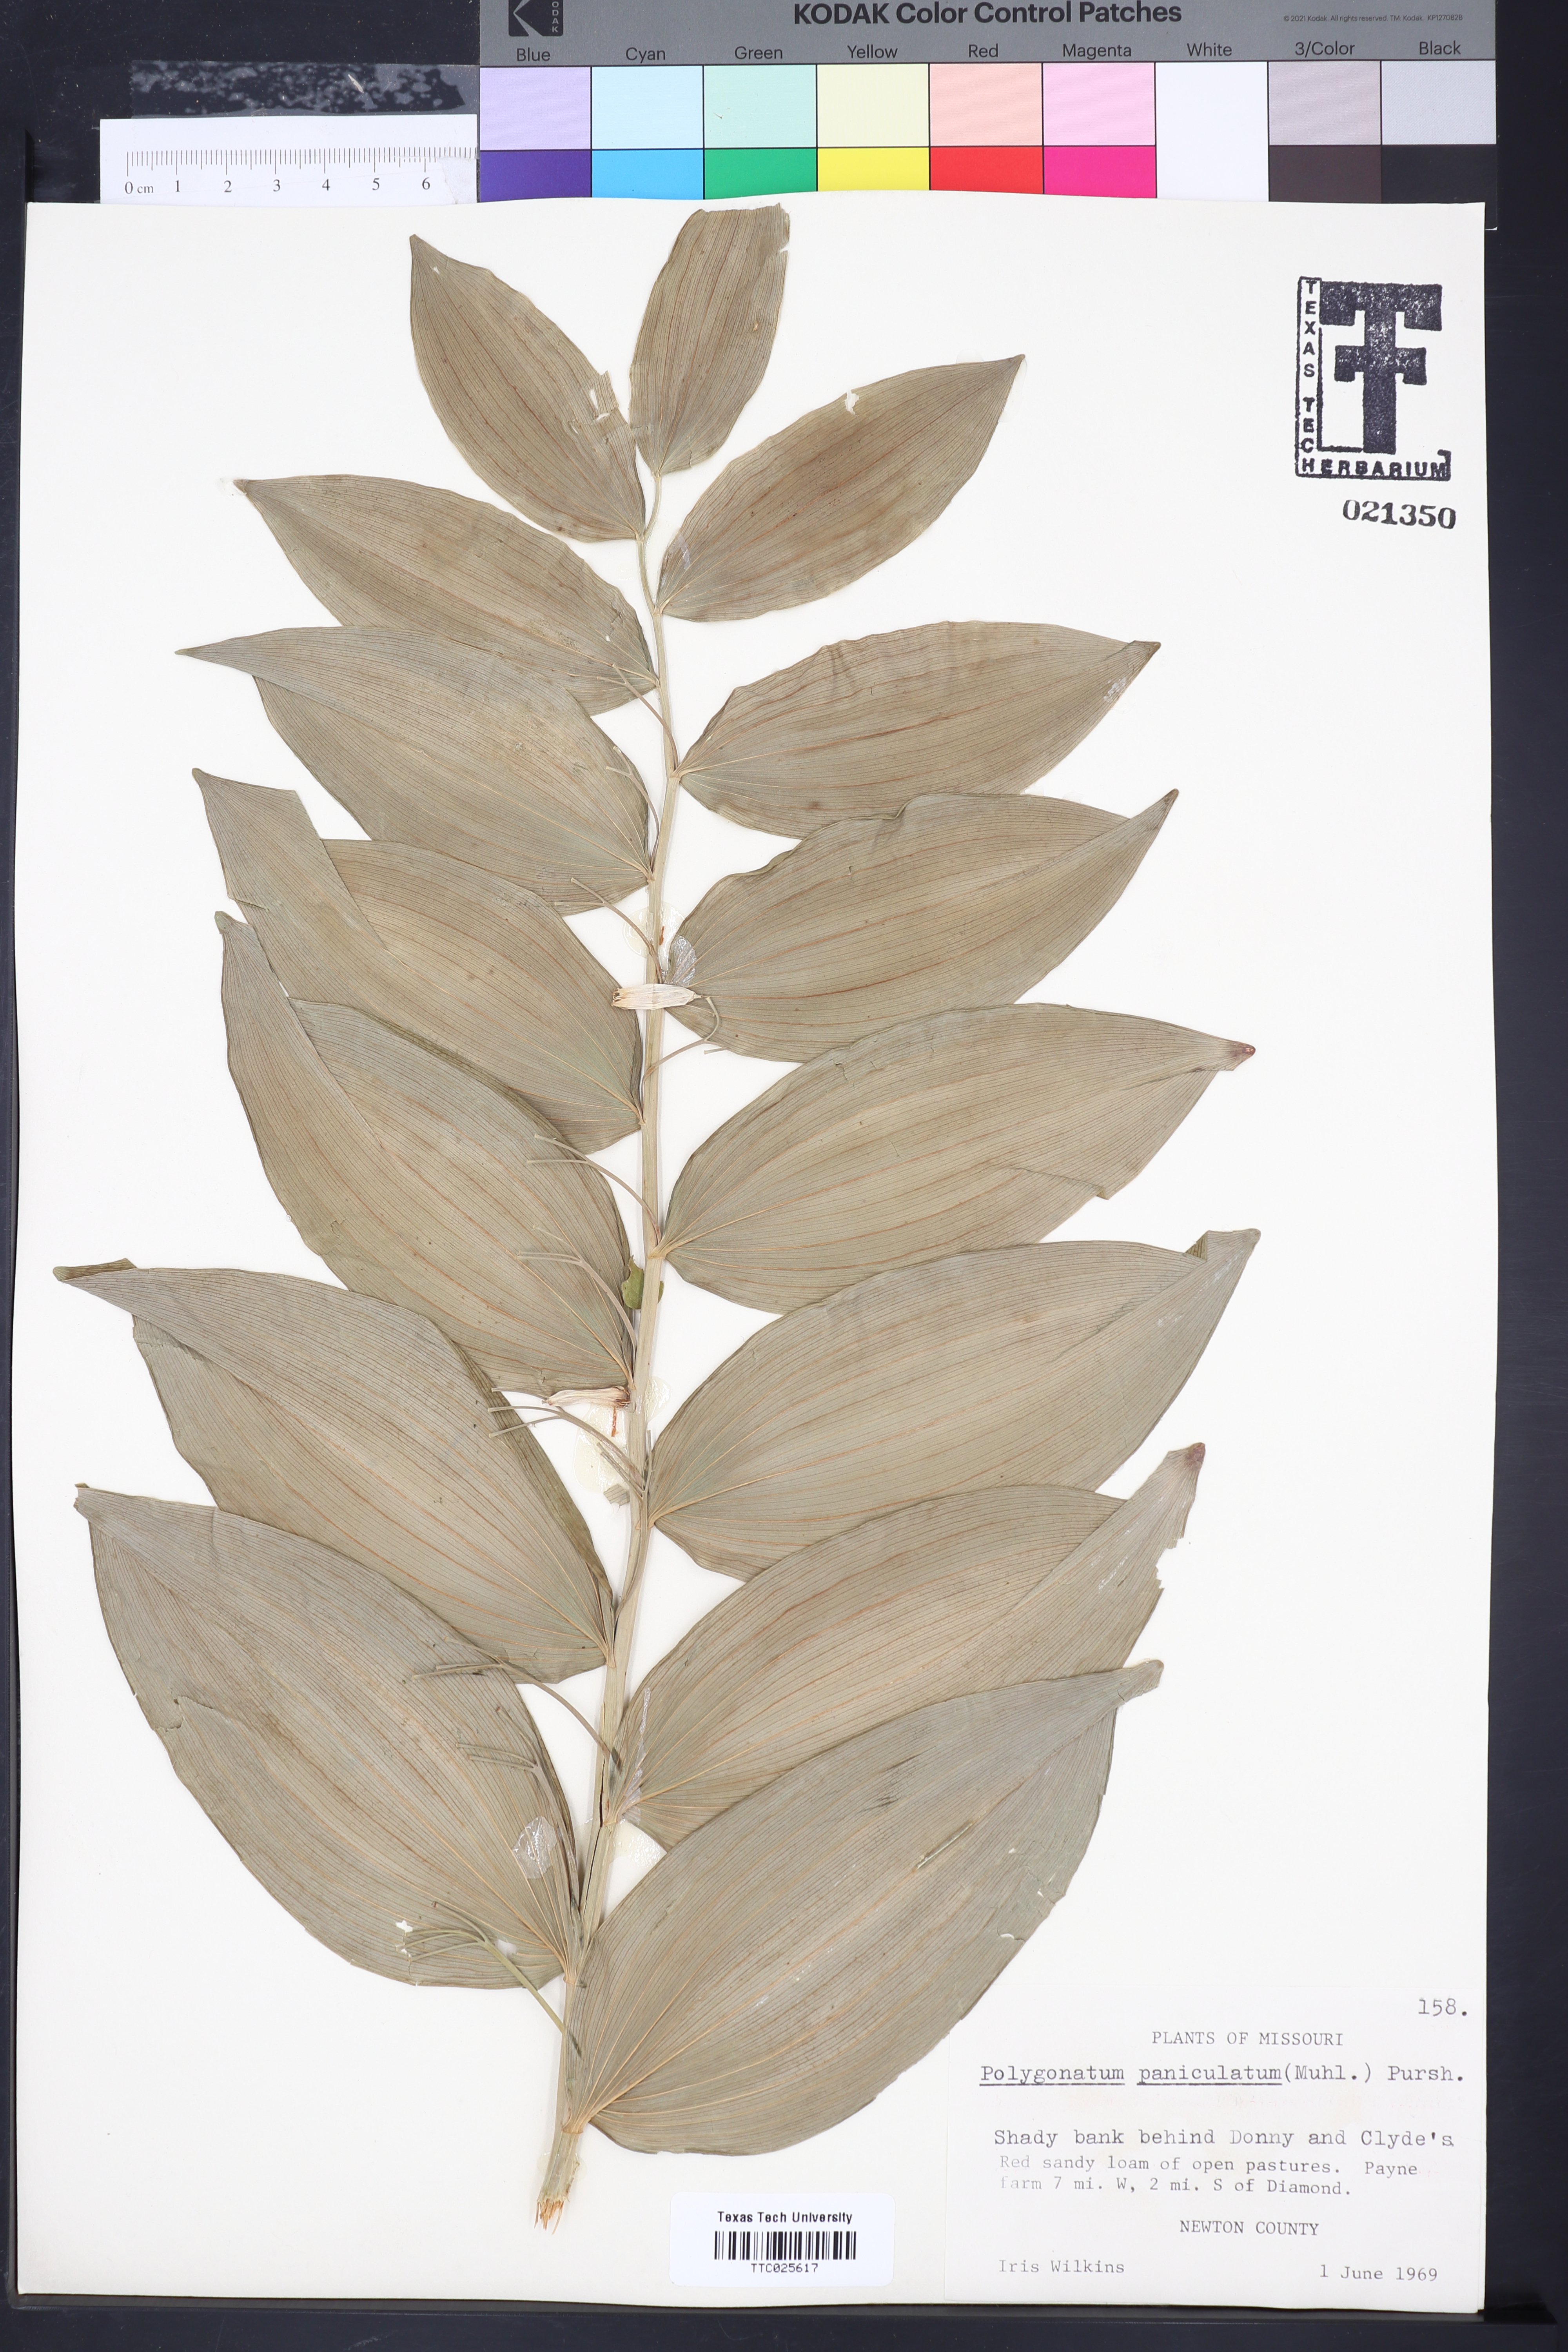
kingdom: Plantae
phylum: Tracheophyta
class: Liliopsida
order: Asparagales
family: Asparagaceae
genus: Polygonatum
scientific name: Polygonatum
